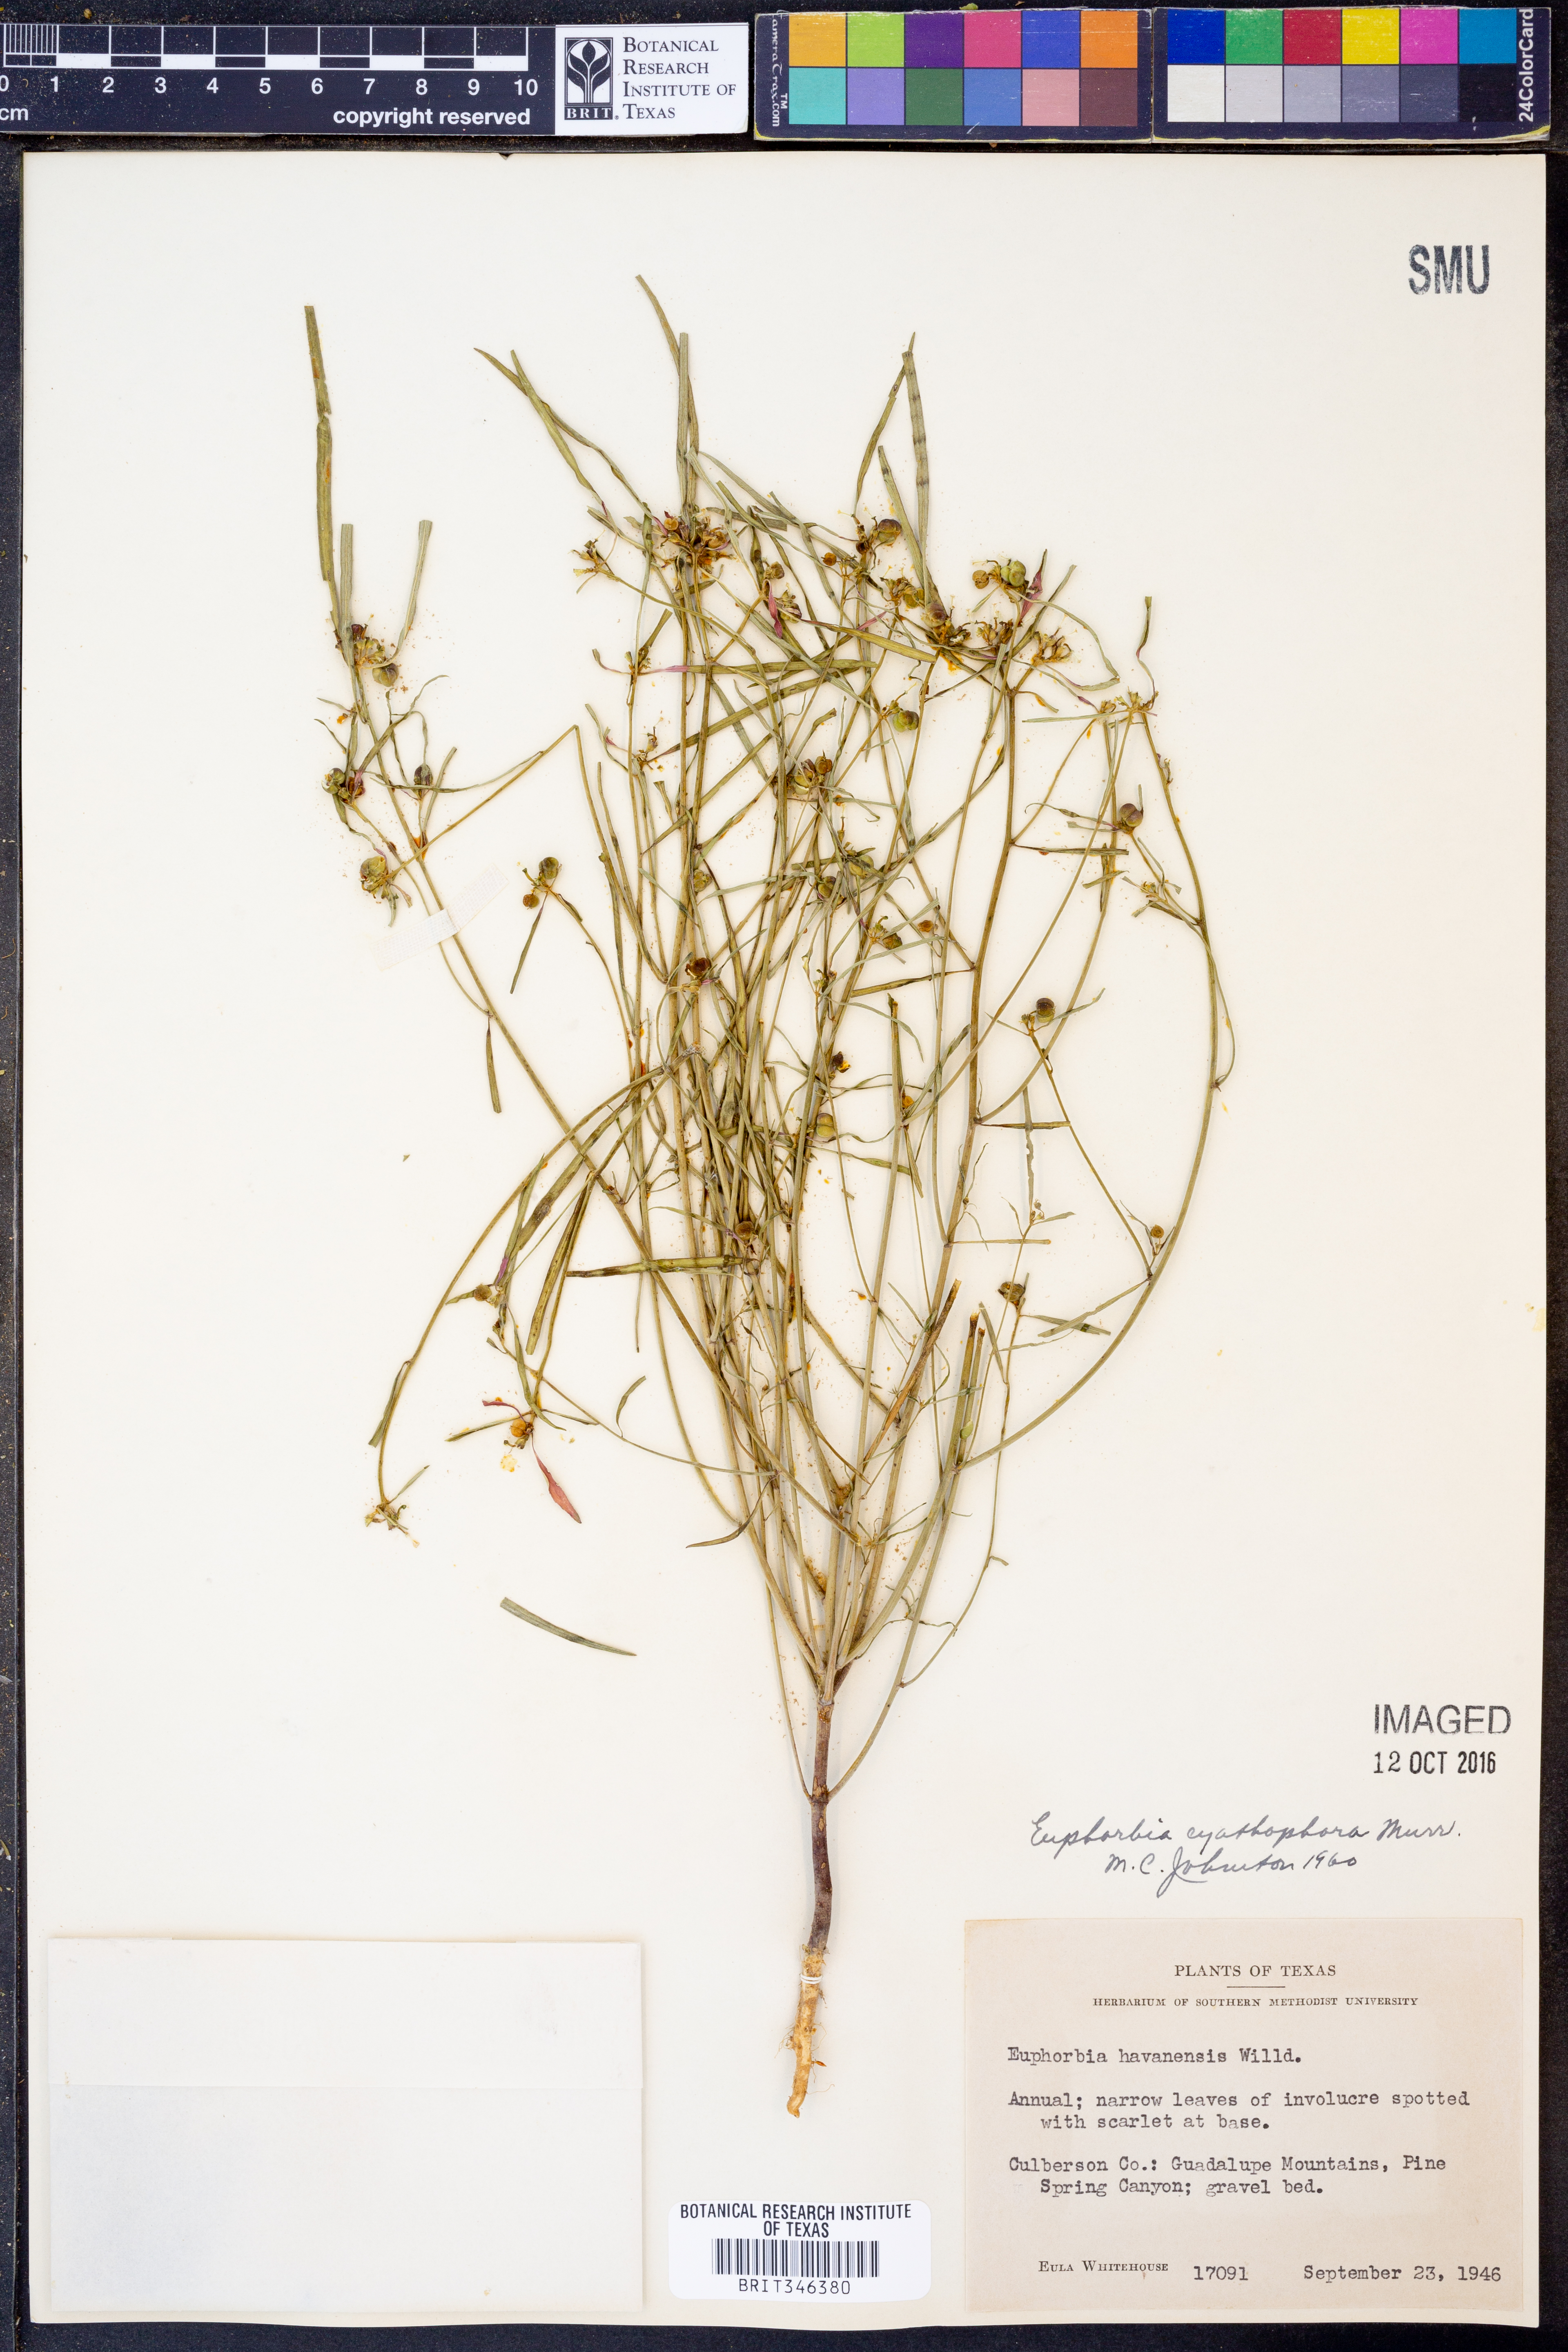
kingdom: Plantae
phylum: Tracheophyta
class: Magnoliopsida
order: Malpighiales
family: Euphorbiaceae
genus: Euphorbia
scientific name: Euphorbia heterophylla
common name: Mexican fireplant
